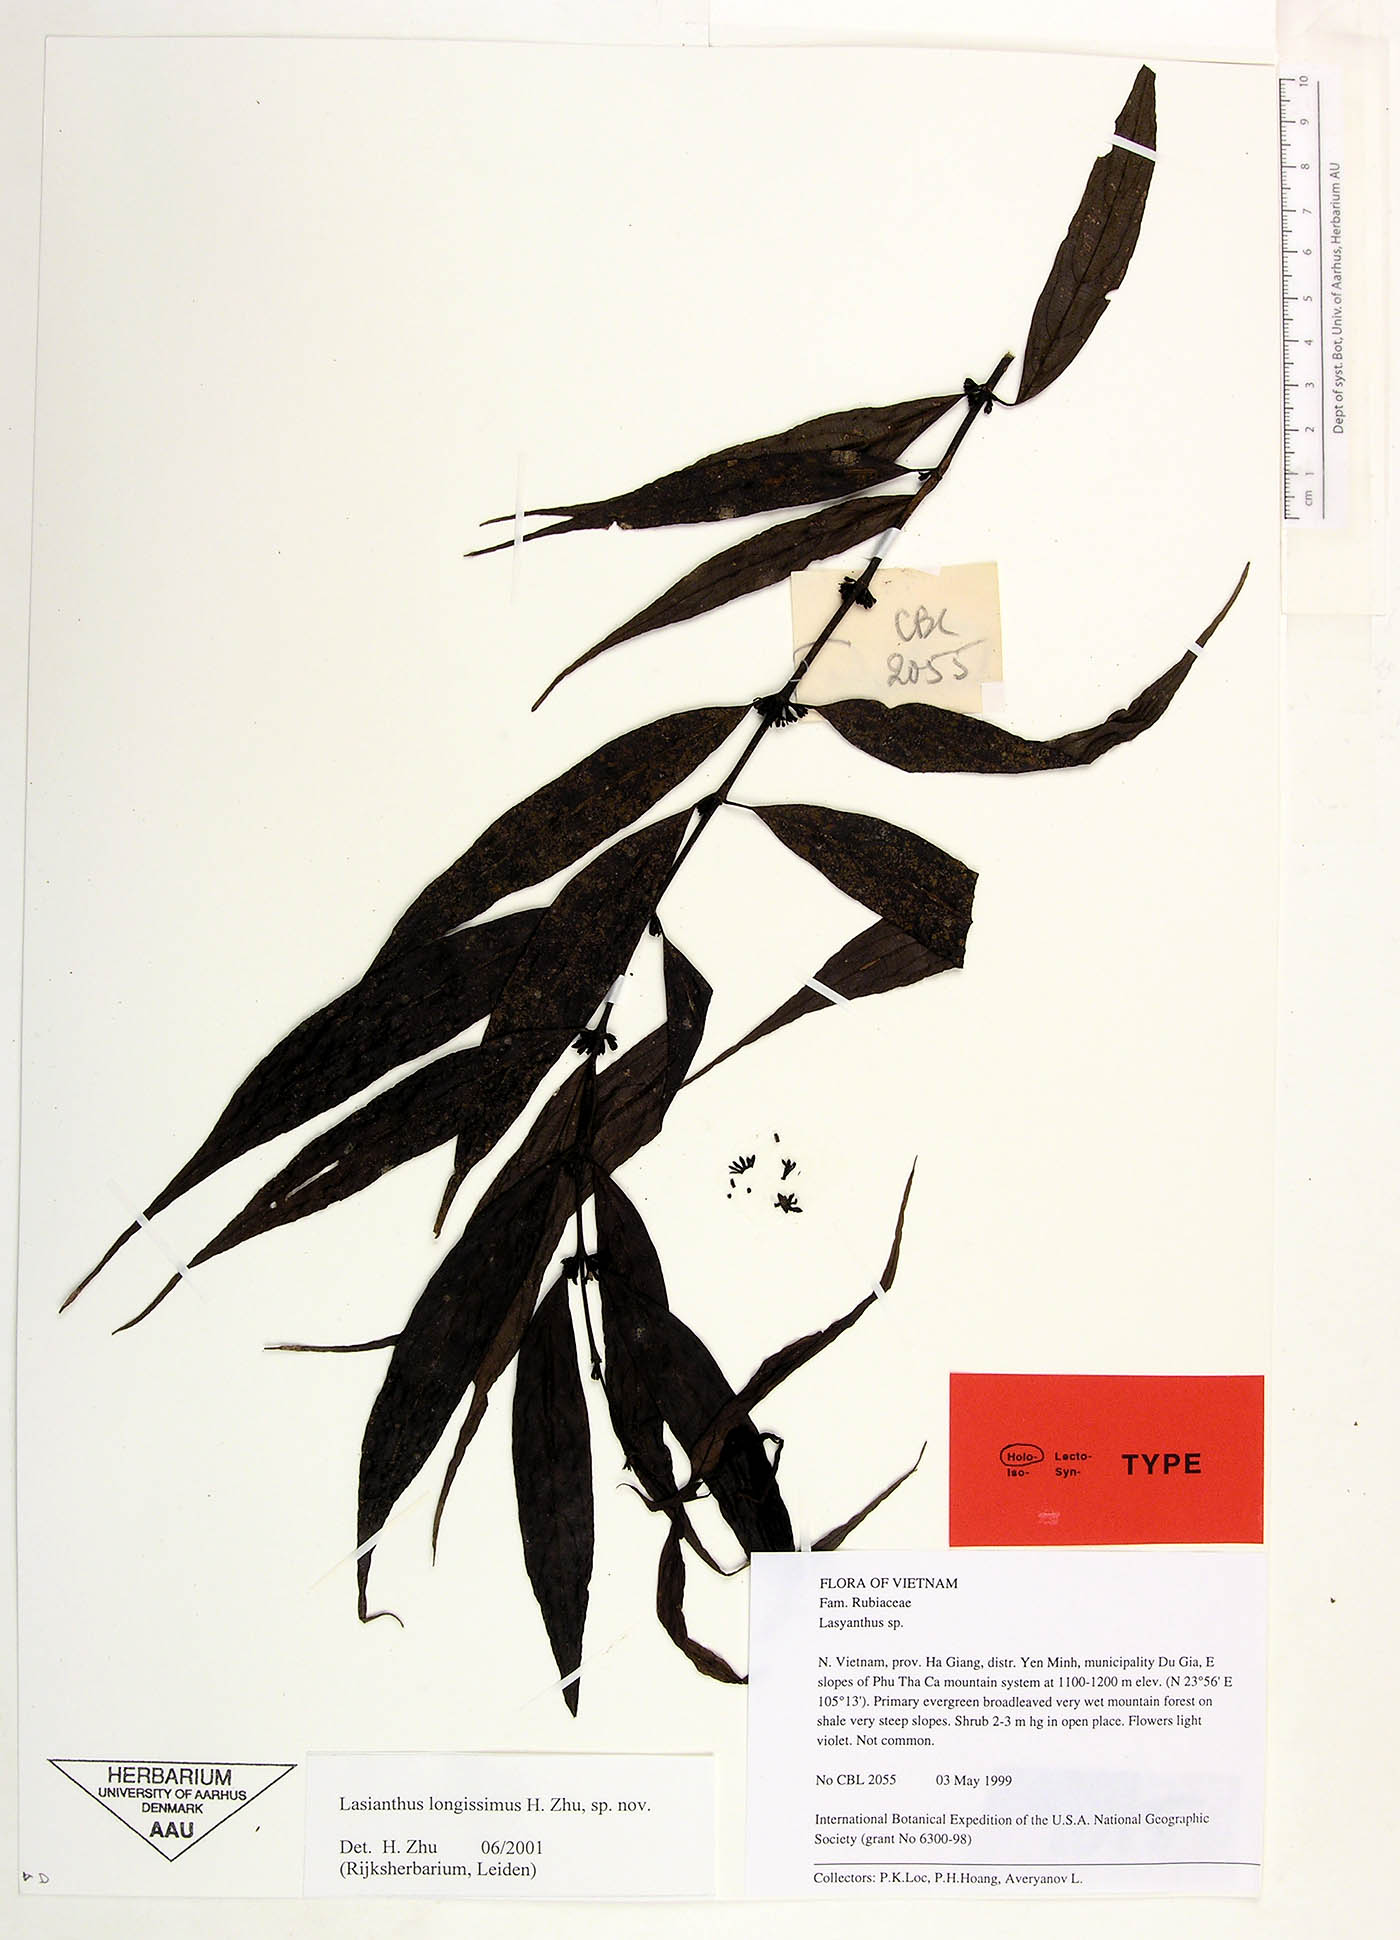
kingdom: Plantae
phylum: Tracheophyta
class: Magnoliopsida
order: Gentianales
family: Rubiaceae
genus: Lasianthus
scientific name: Lasianthus longissimus
